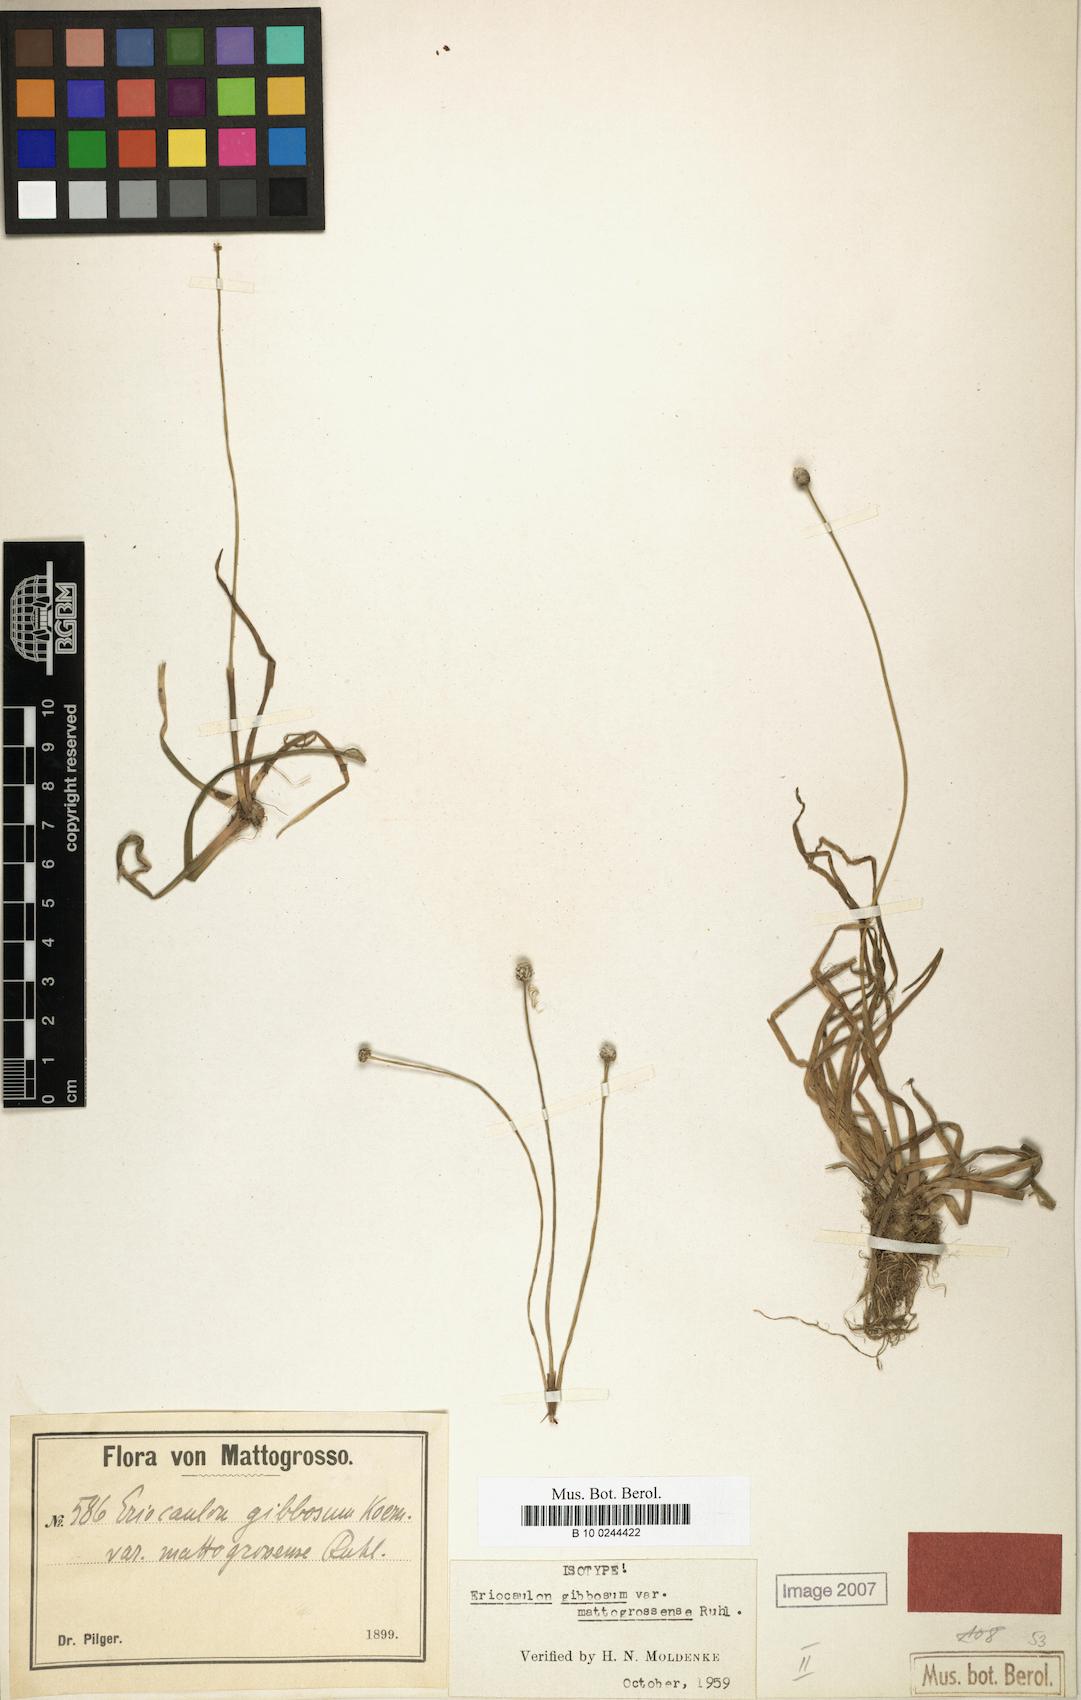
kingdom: Plantae
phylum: Tracheophyta
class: Liliopsida
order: Poales
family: Eriocaulaceae
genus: Eriocaulon
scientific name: Eriocaulon gibbosum
